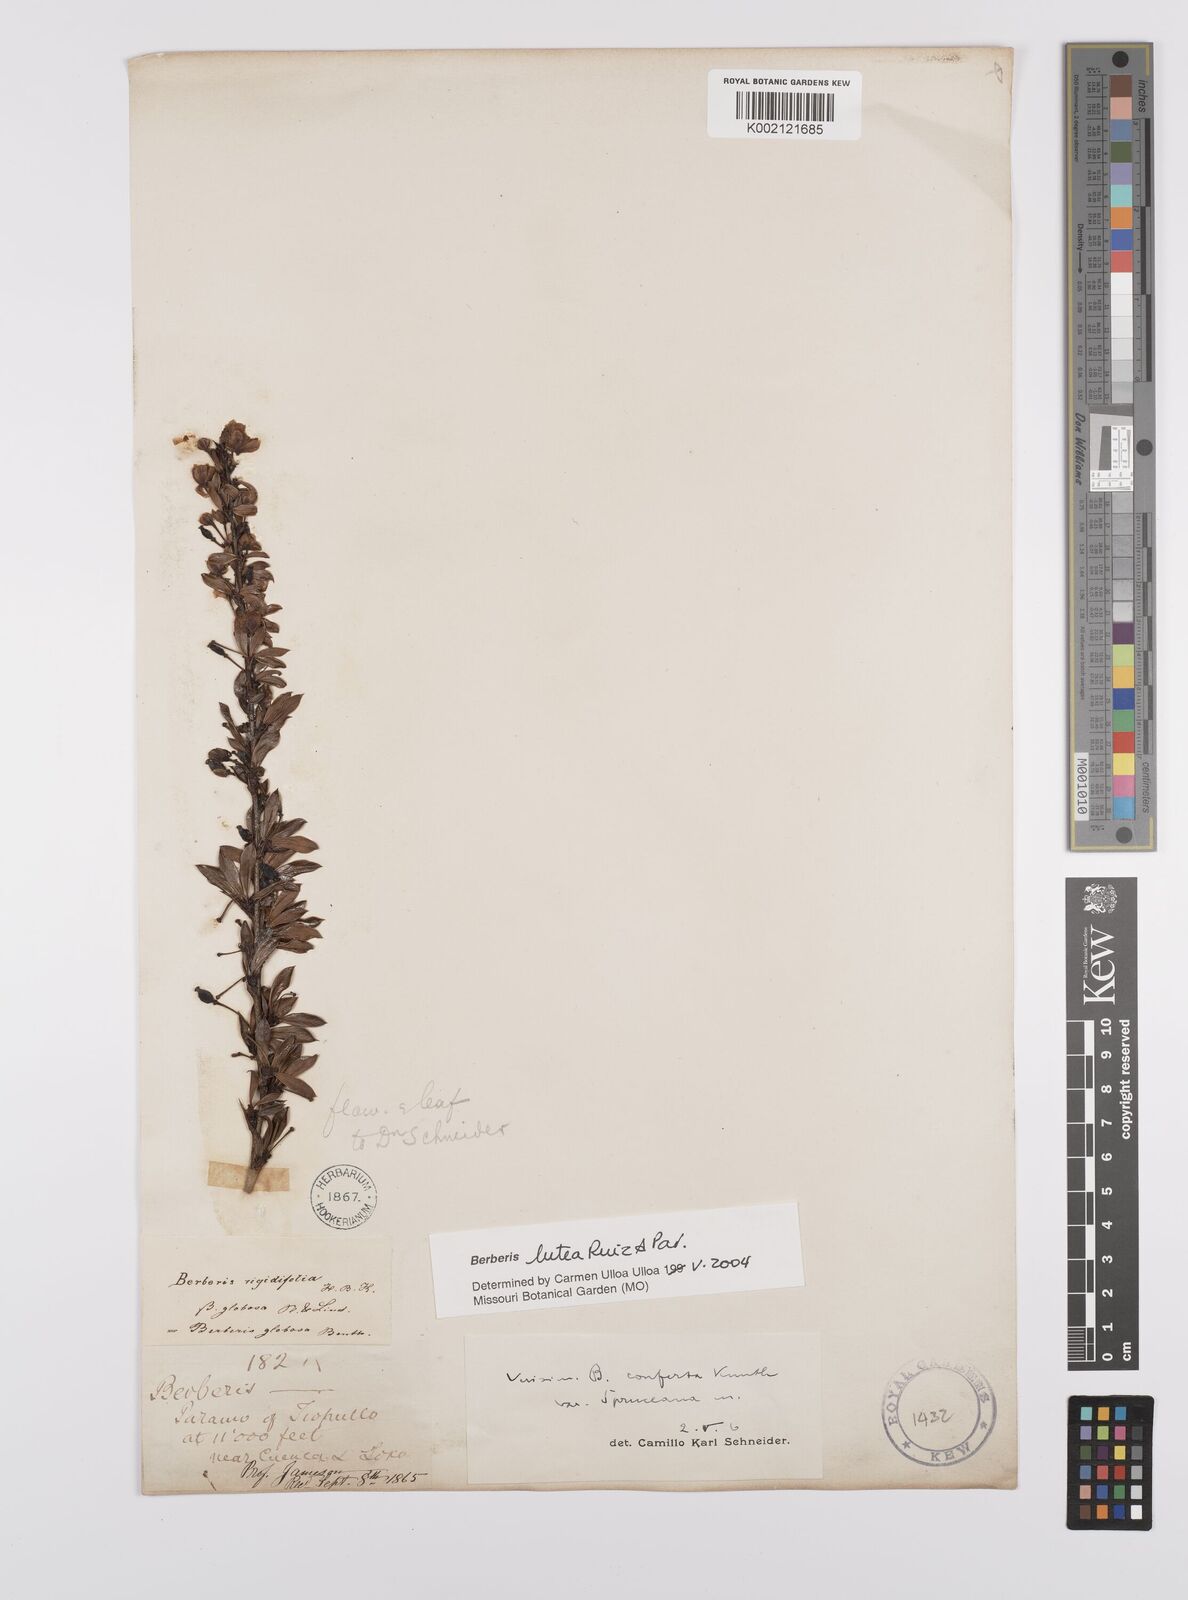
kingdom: Plantae
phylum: Tracheophyta
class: Magnoliopsida
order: Ranunculales
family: Berberidaceae
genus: Berberis
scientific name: Berberis lutea
